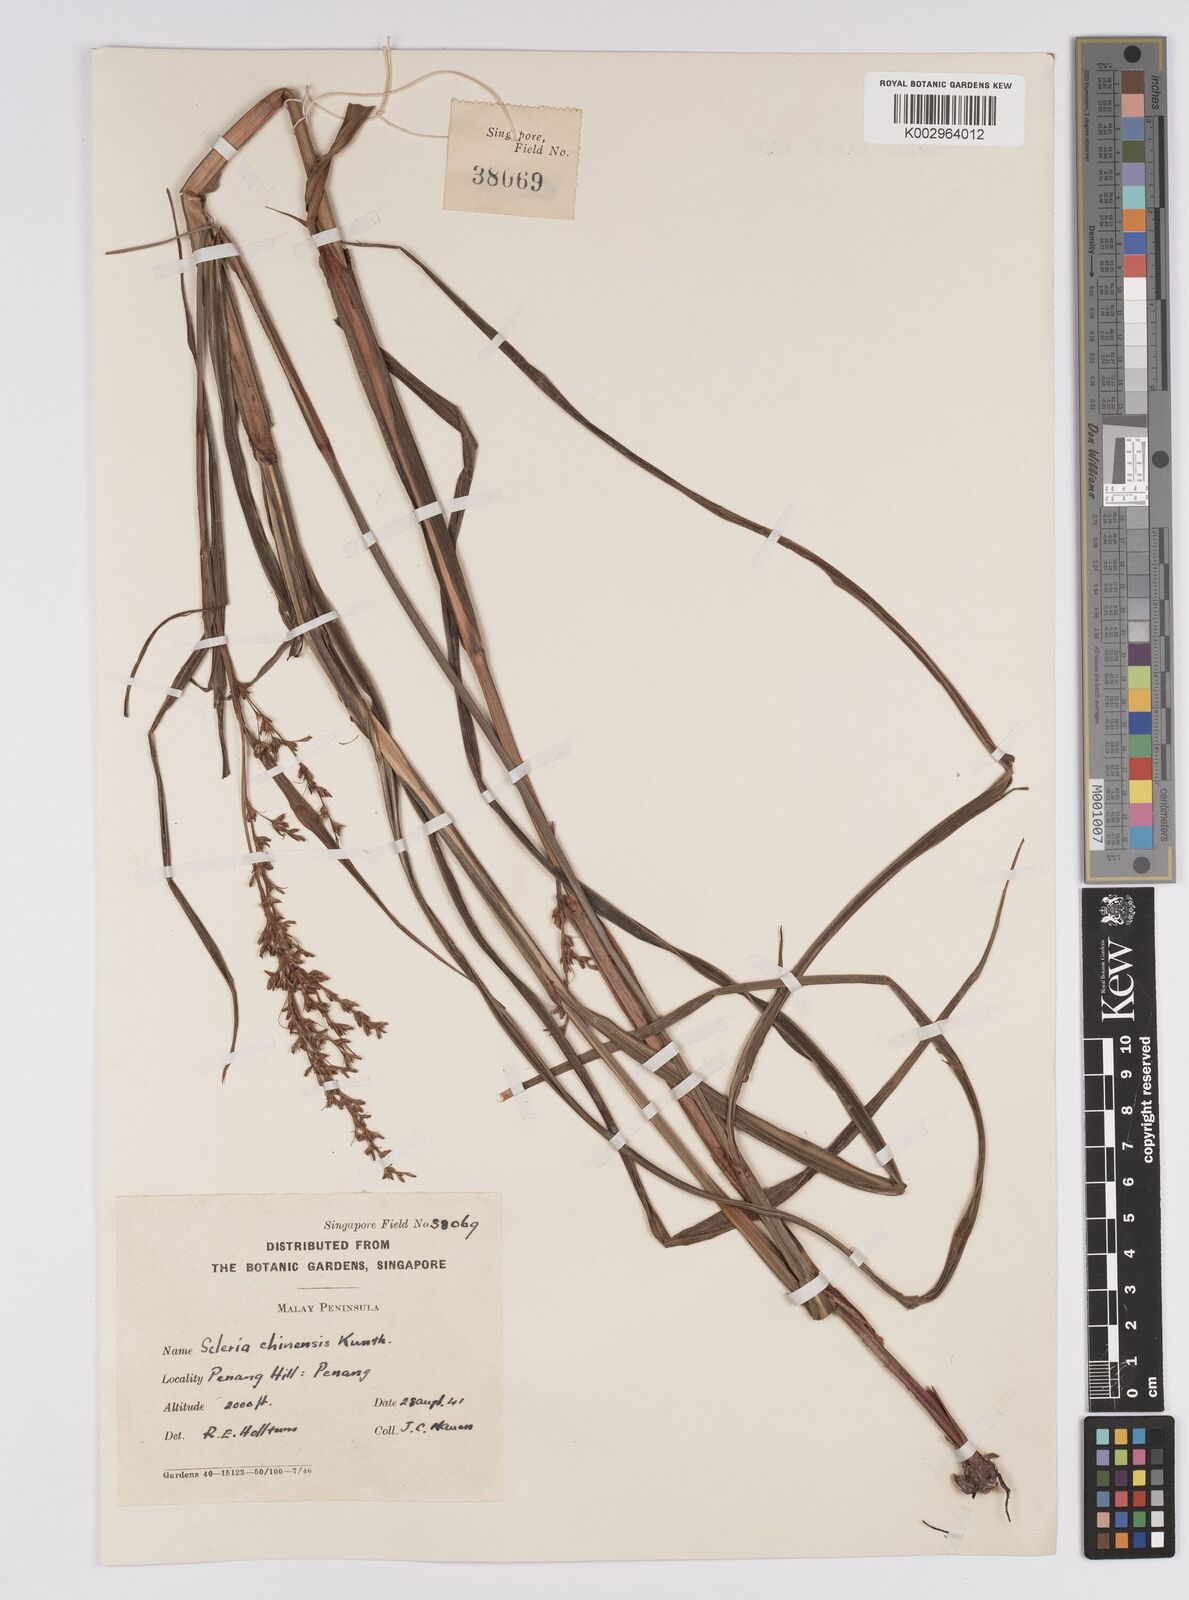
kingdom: Plantae
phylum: Tracheophyta
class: Liliopsida
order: Poales
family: Cyperaceae
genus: Scleria
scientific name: Scleria ciliaris
